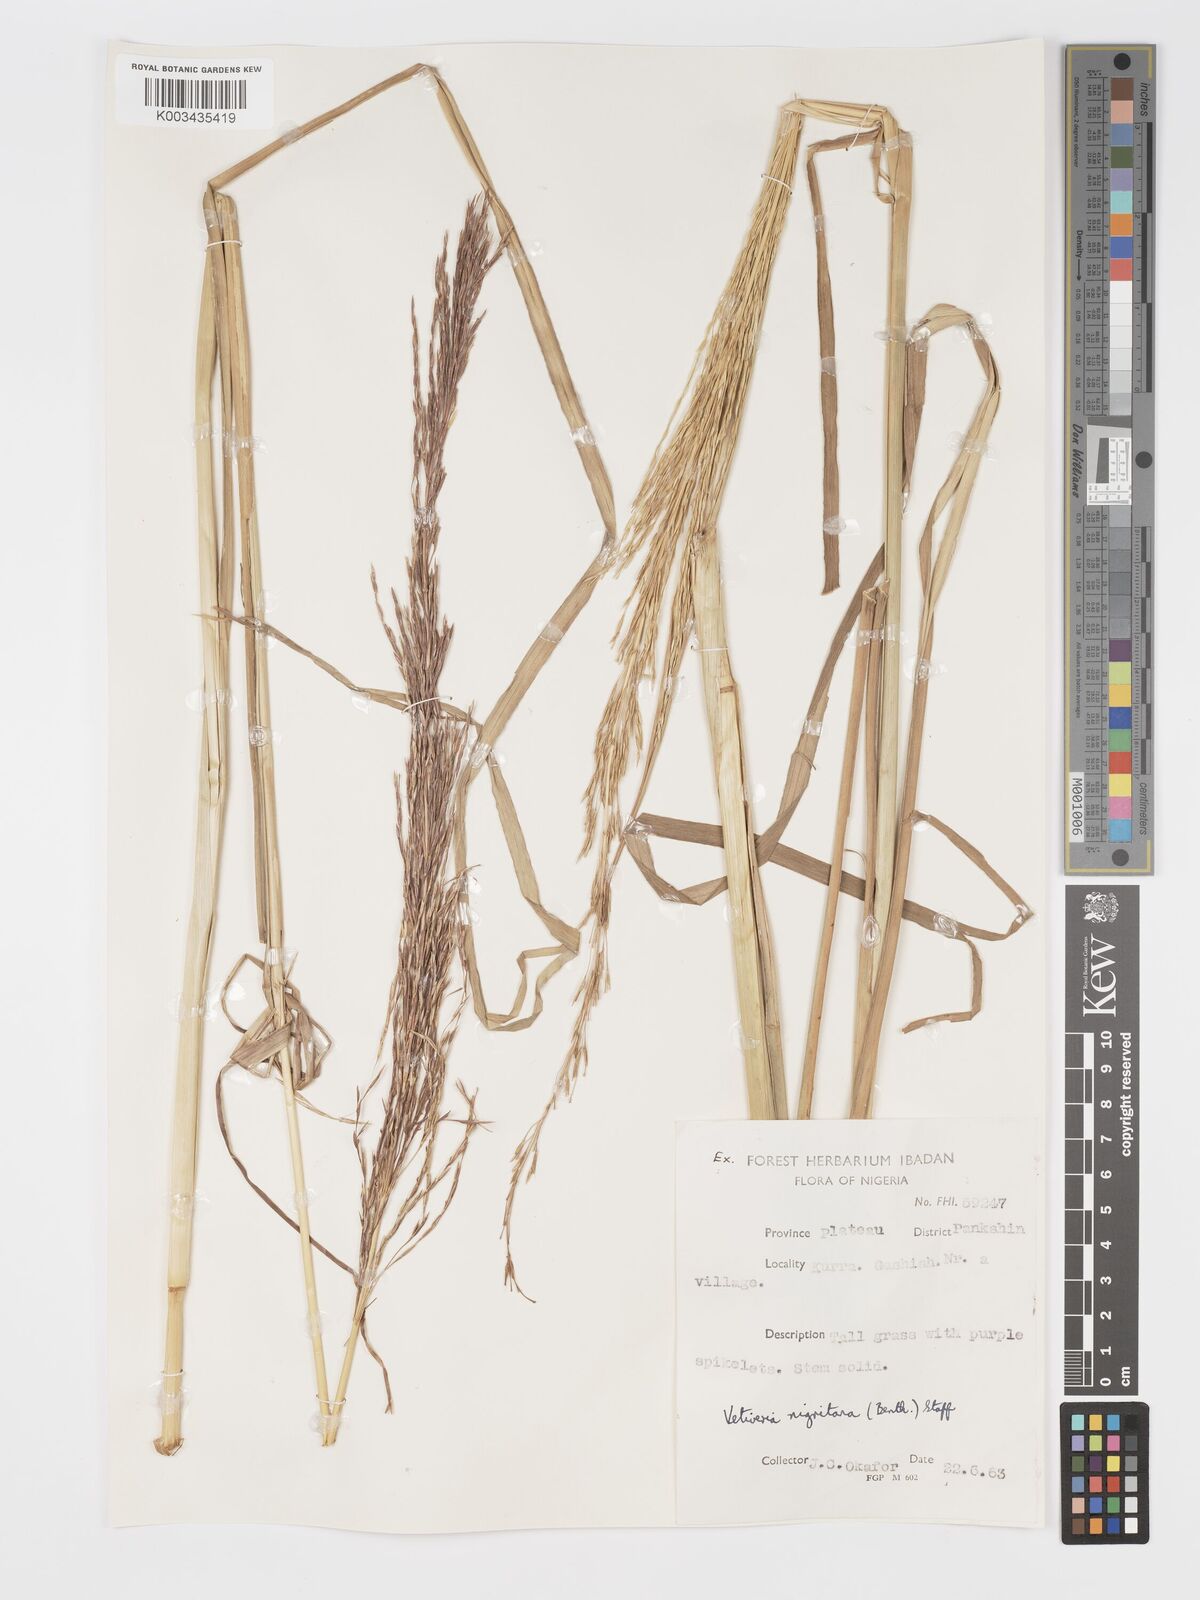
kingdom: Plantae
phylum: Tracheophyta
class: Liliopsida
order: Poales
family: Poaceae
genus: Chrysopogon
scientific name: Chrysopogon nigritanus
